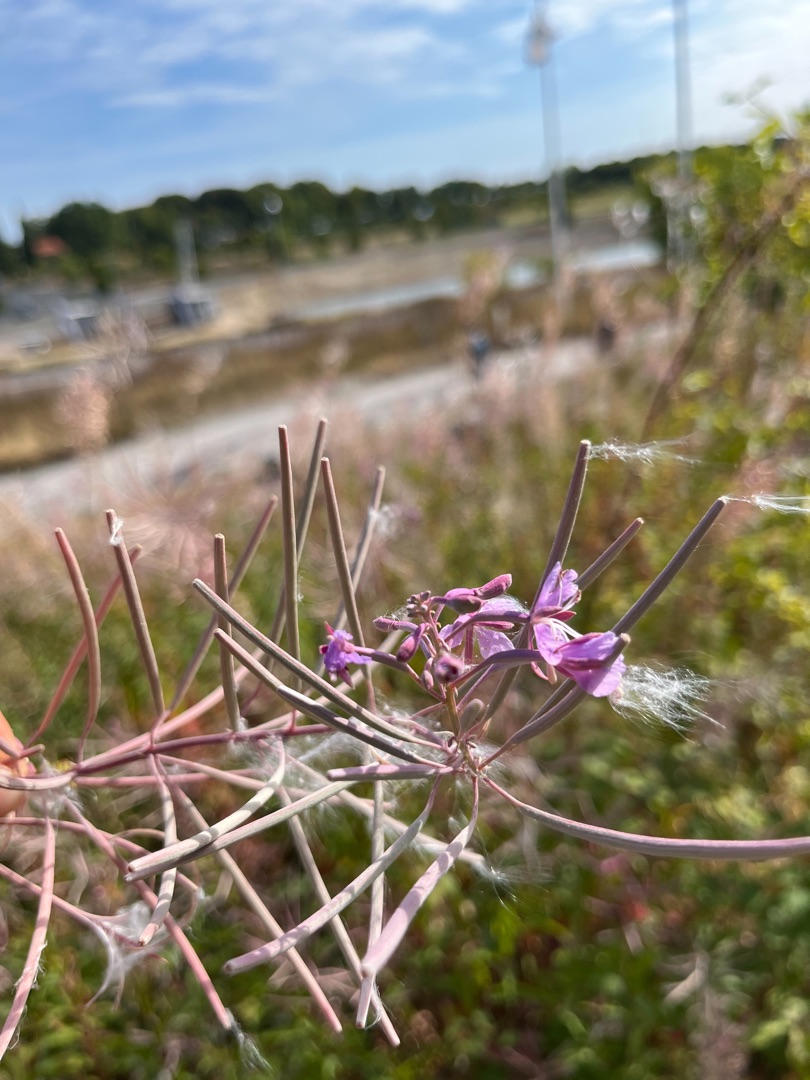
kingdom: Plantae
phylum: Tracheophyta
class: Magnoliopsida
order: Myrtales
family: Onagraceae
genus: Chamaenerion
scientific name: Chamaenerion angustifolium
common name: Gederams
